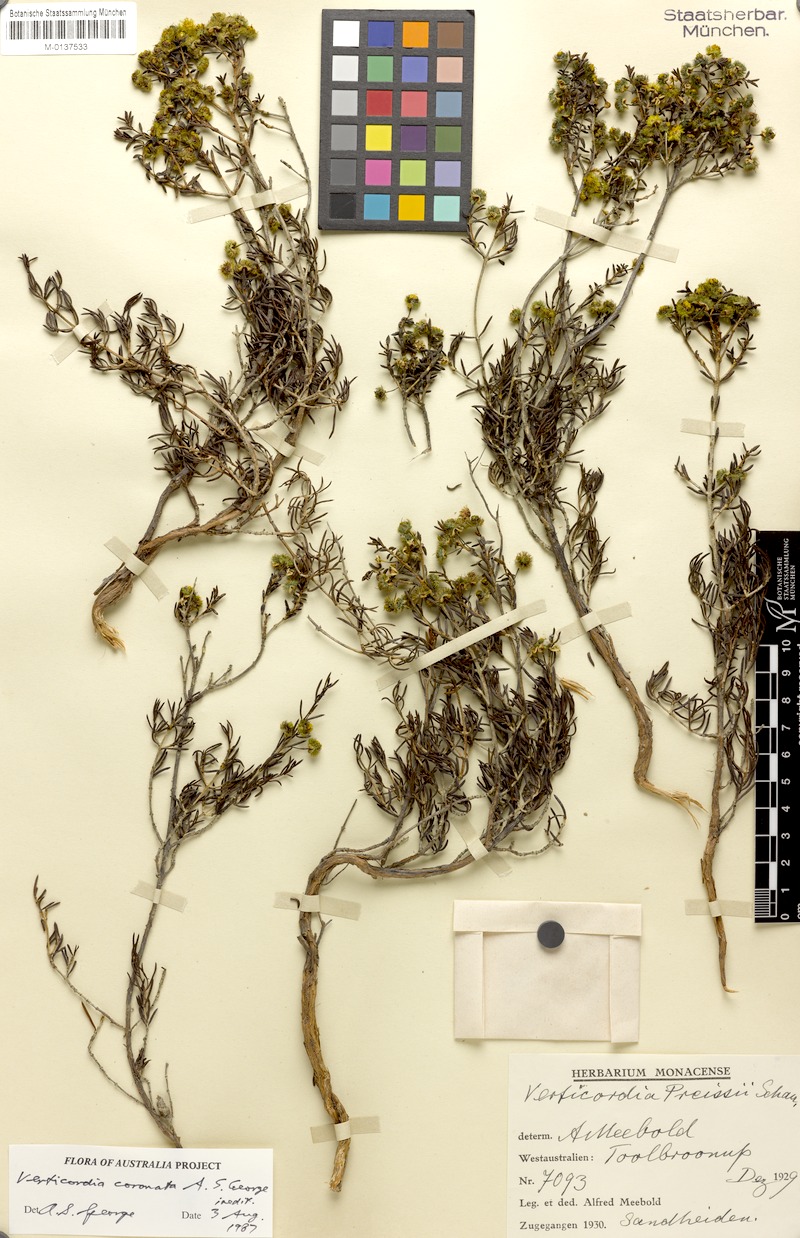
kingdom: Plantae
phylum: Tracheophyta
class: Magnoliopsida
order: Myrtales
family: Myrtaceae
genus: Verticordia
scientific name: Verticordia coronata
